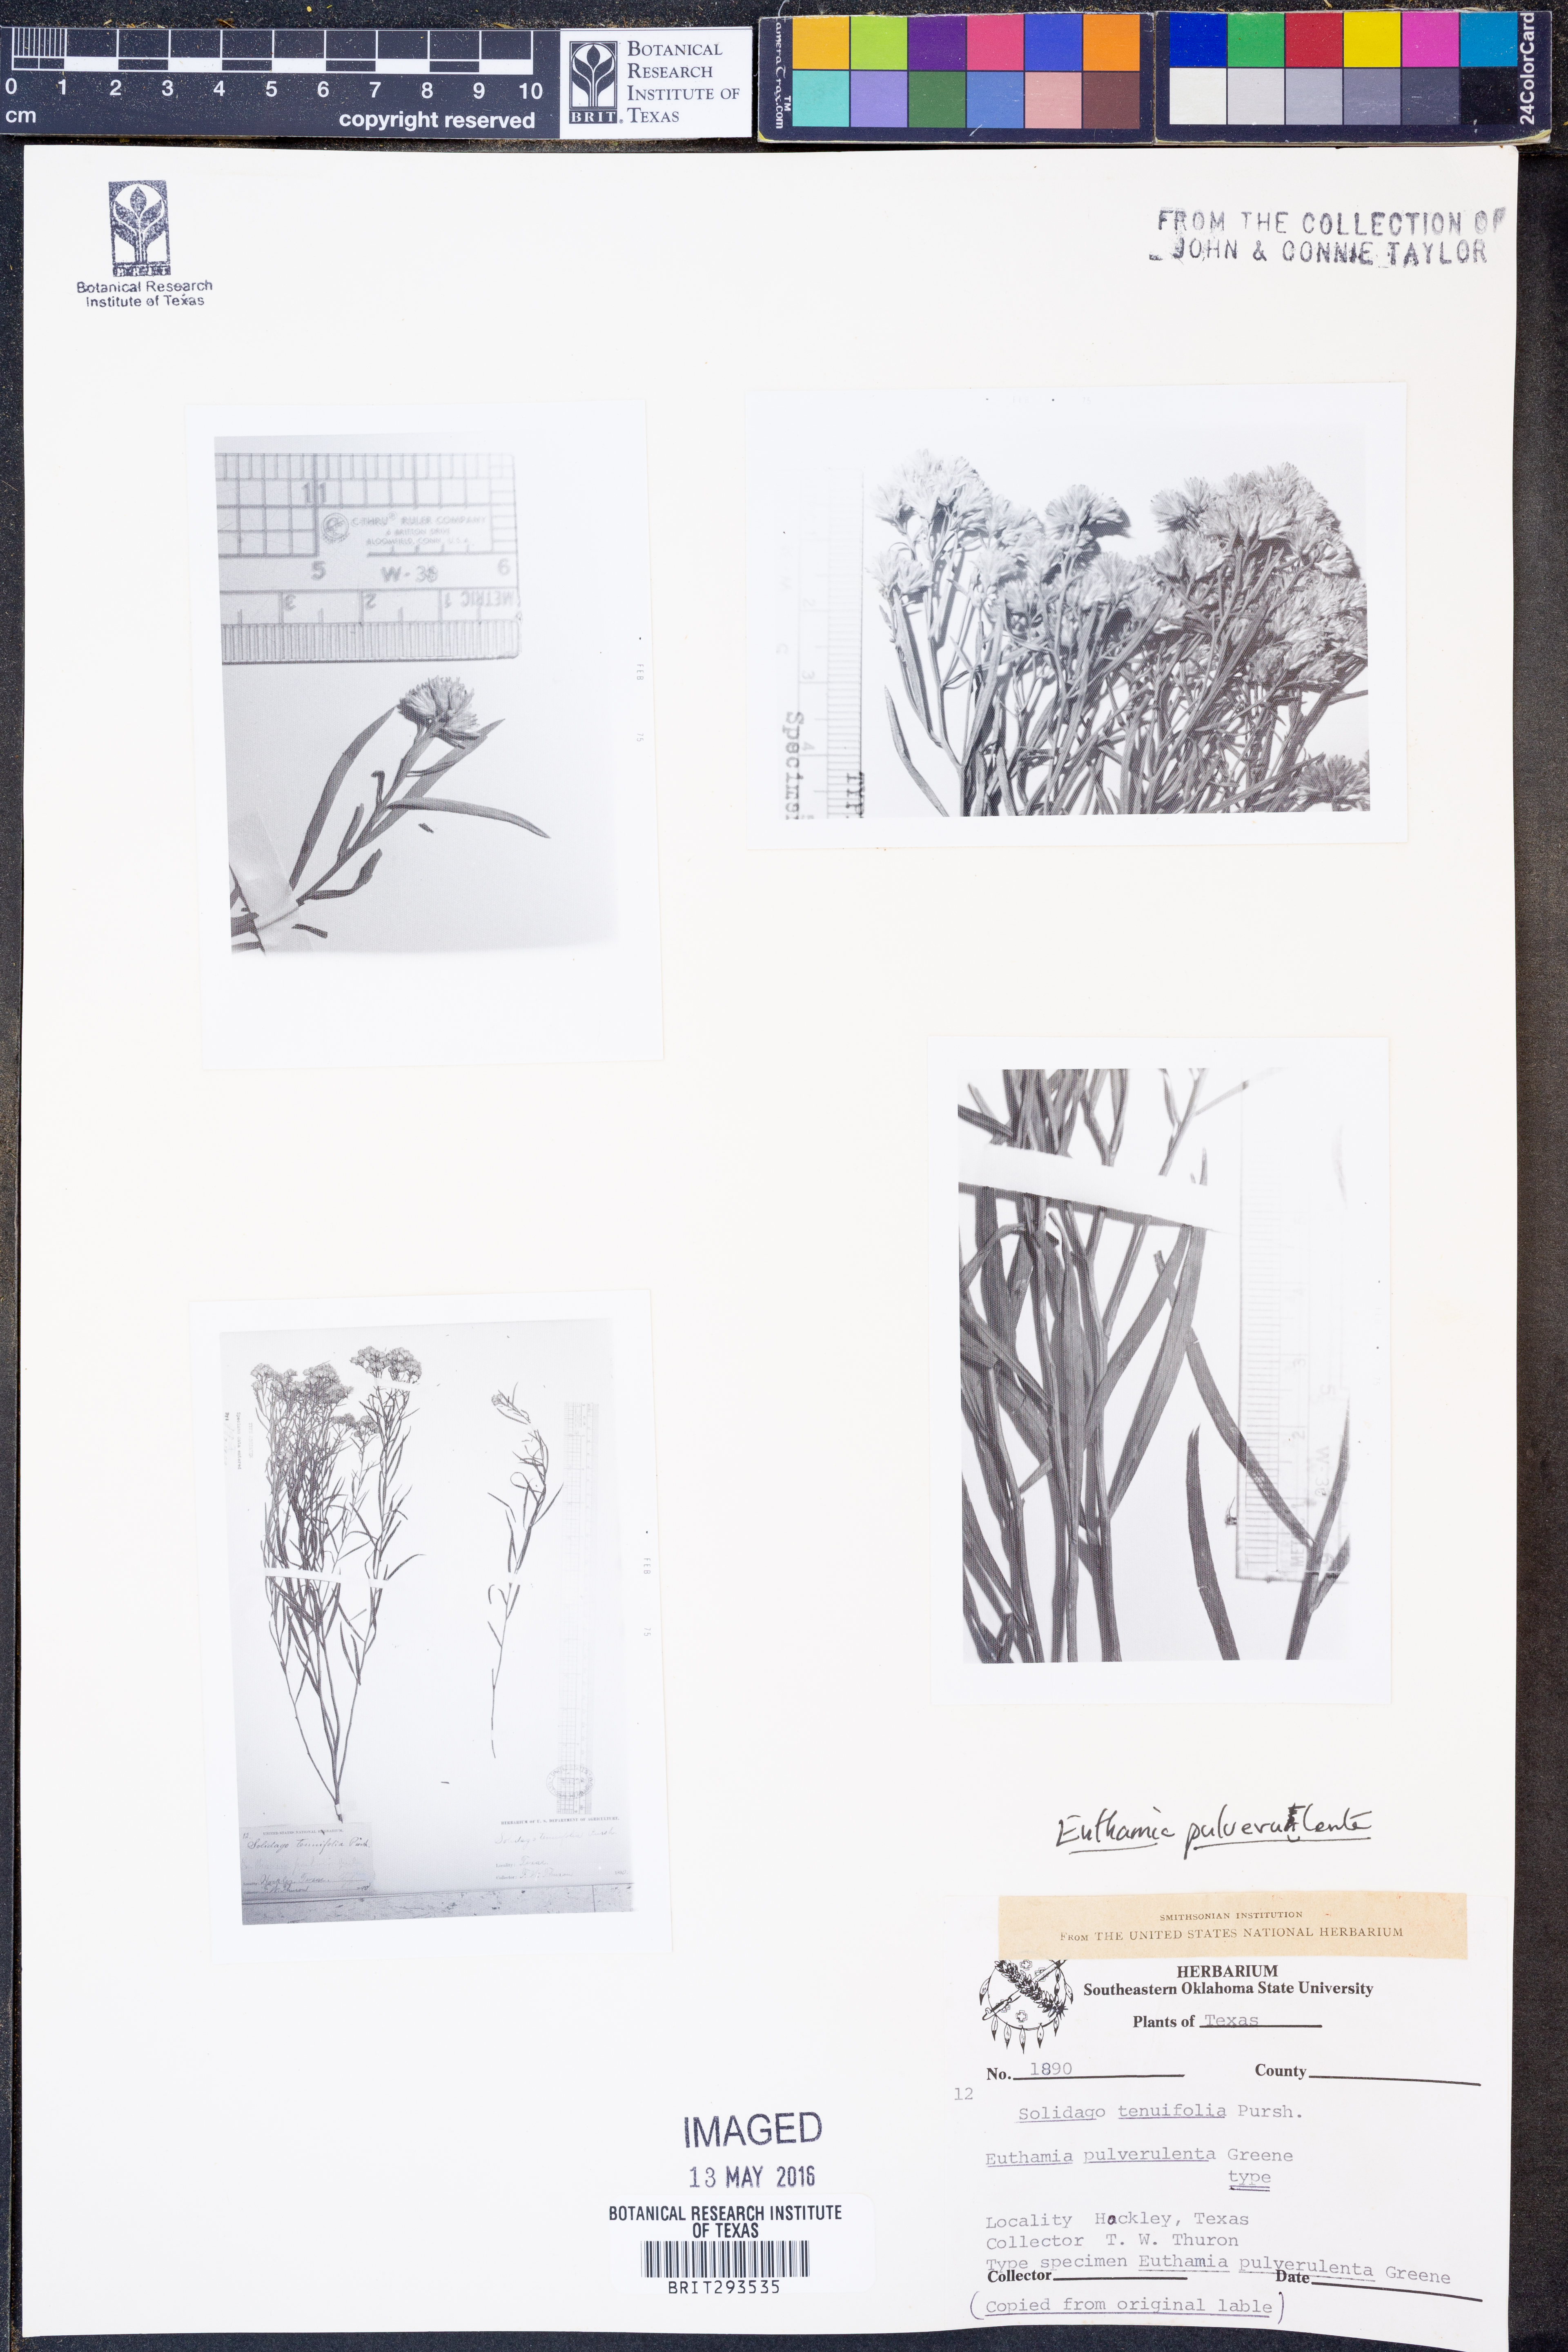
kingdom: Plantae
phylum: Tracheophyta
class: Magnoliopsida
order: Asterales
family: Asteraceae
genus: Euthamia
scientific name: Euthamia pulverulenta
